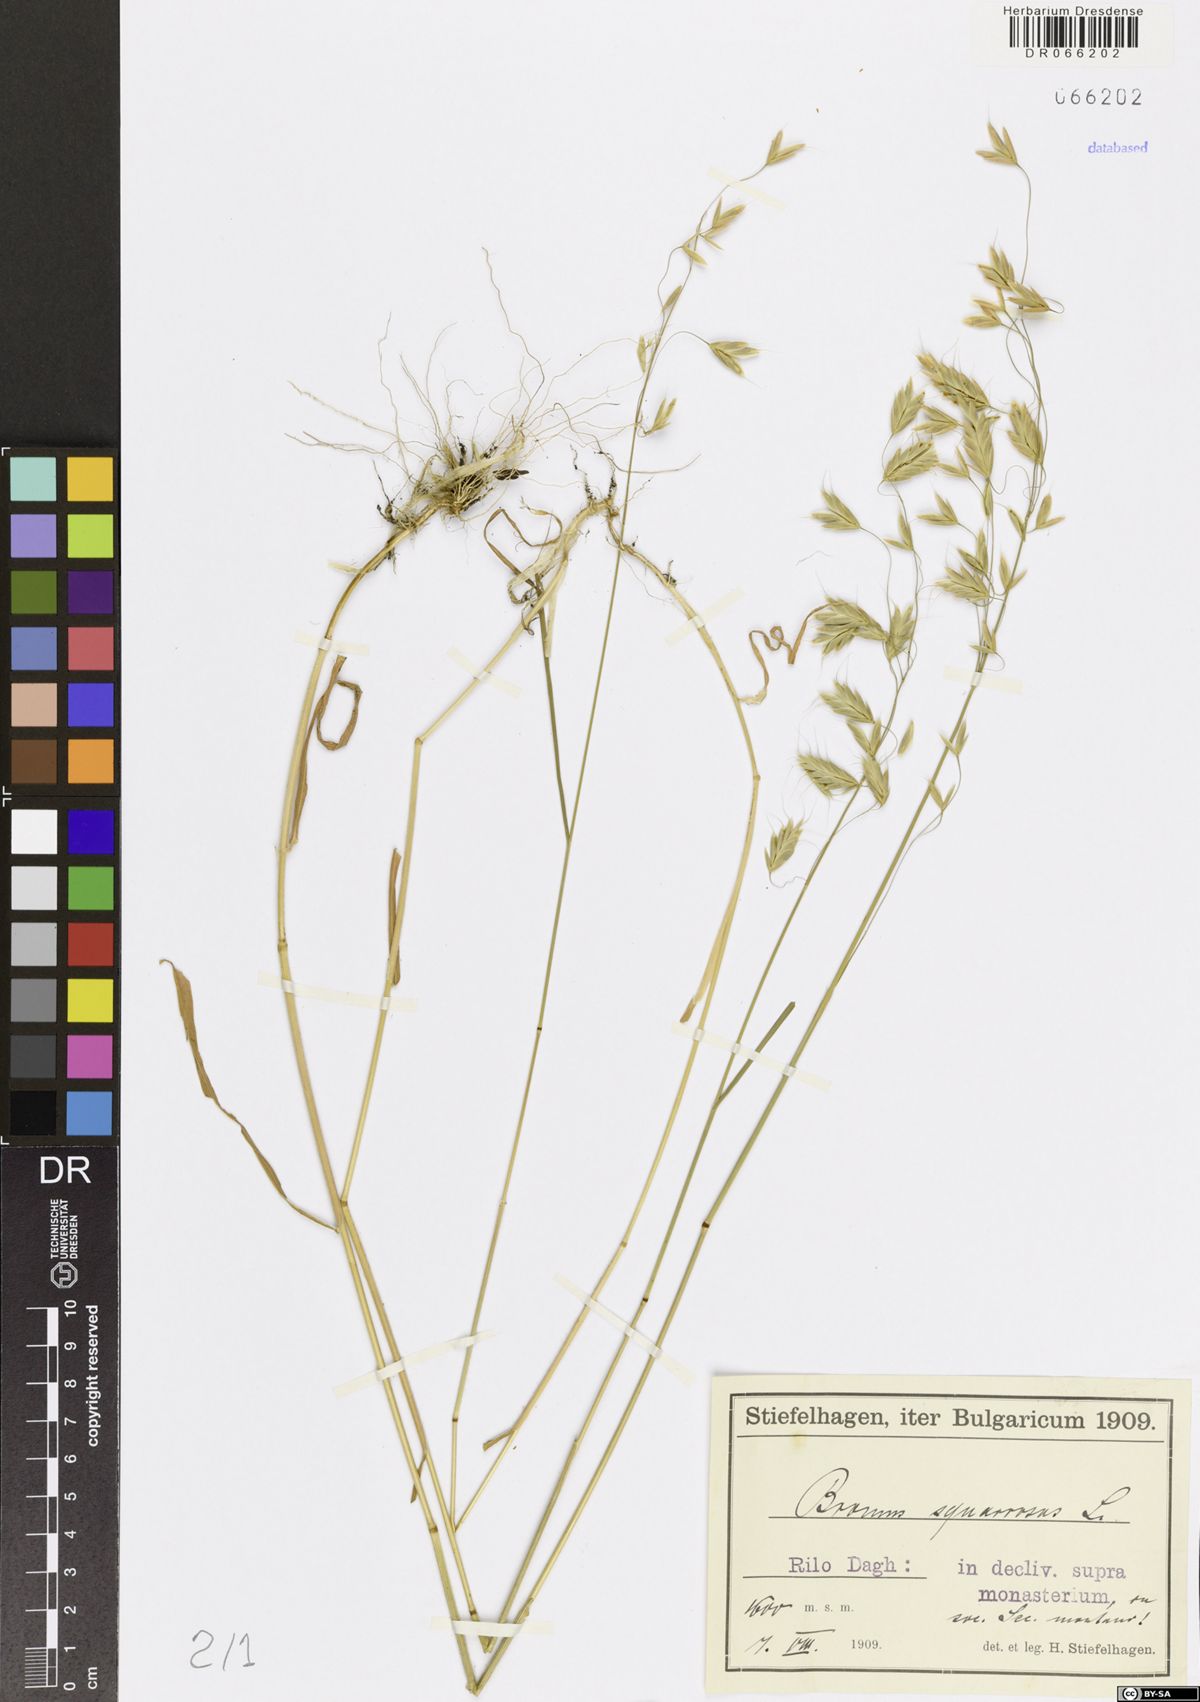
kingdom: Plantae
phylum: Tracheophyta
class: Liliopsida
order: Poales
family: Poaceae
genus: Bromus
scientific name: Bromus squarrosus
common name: Corn brome
